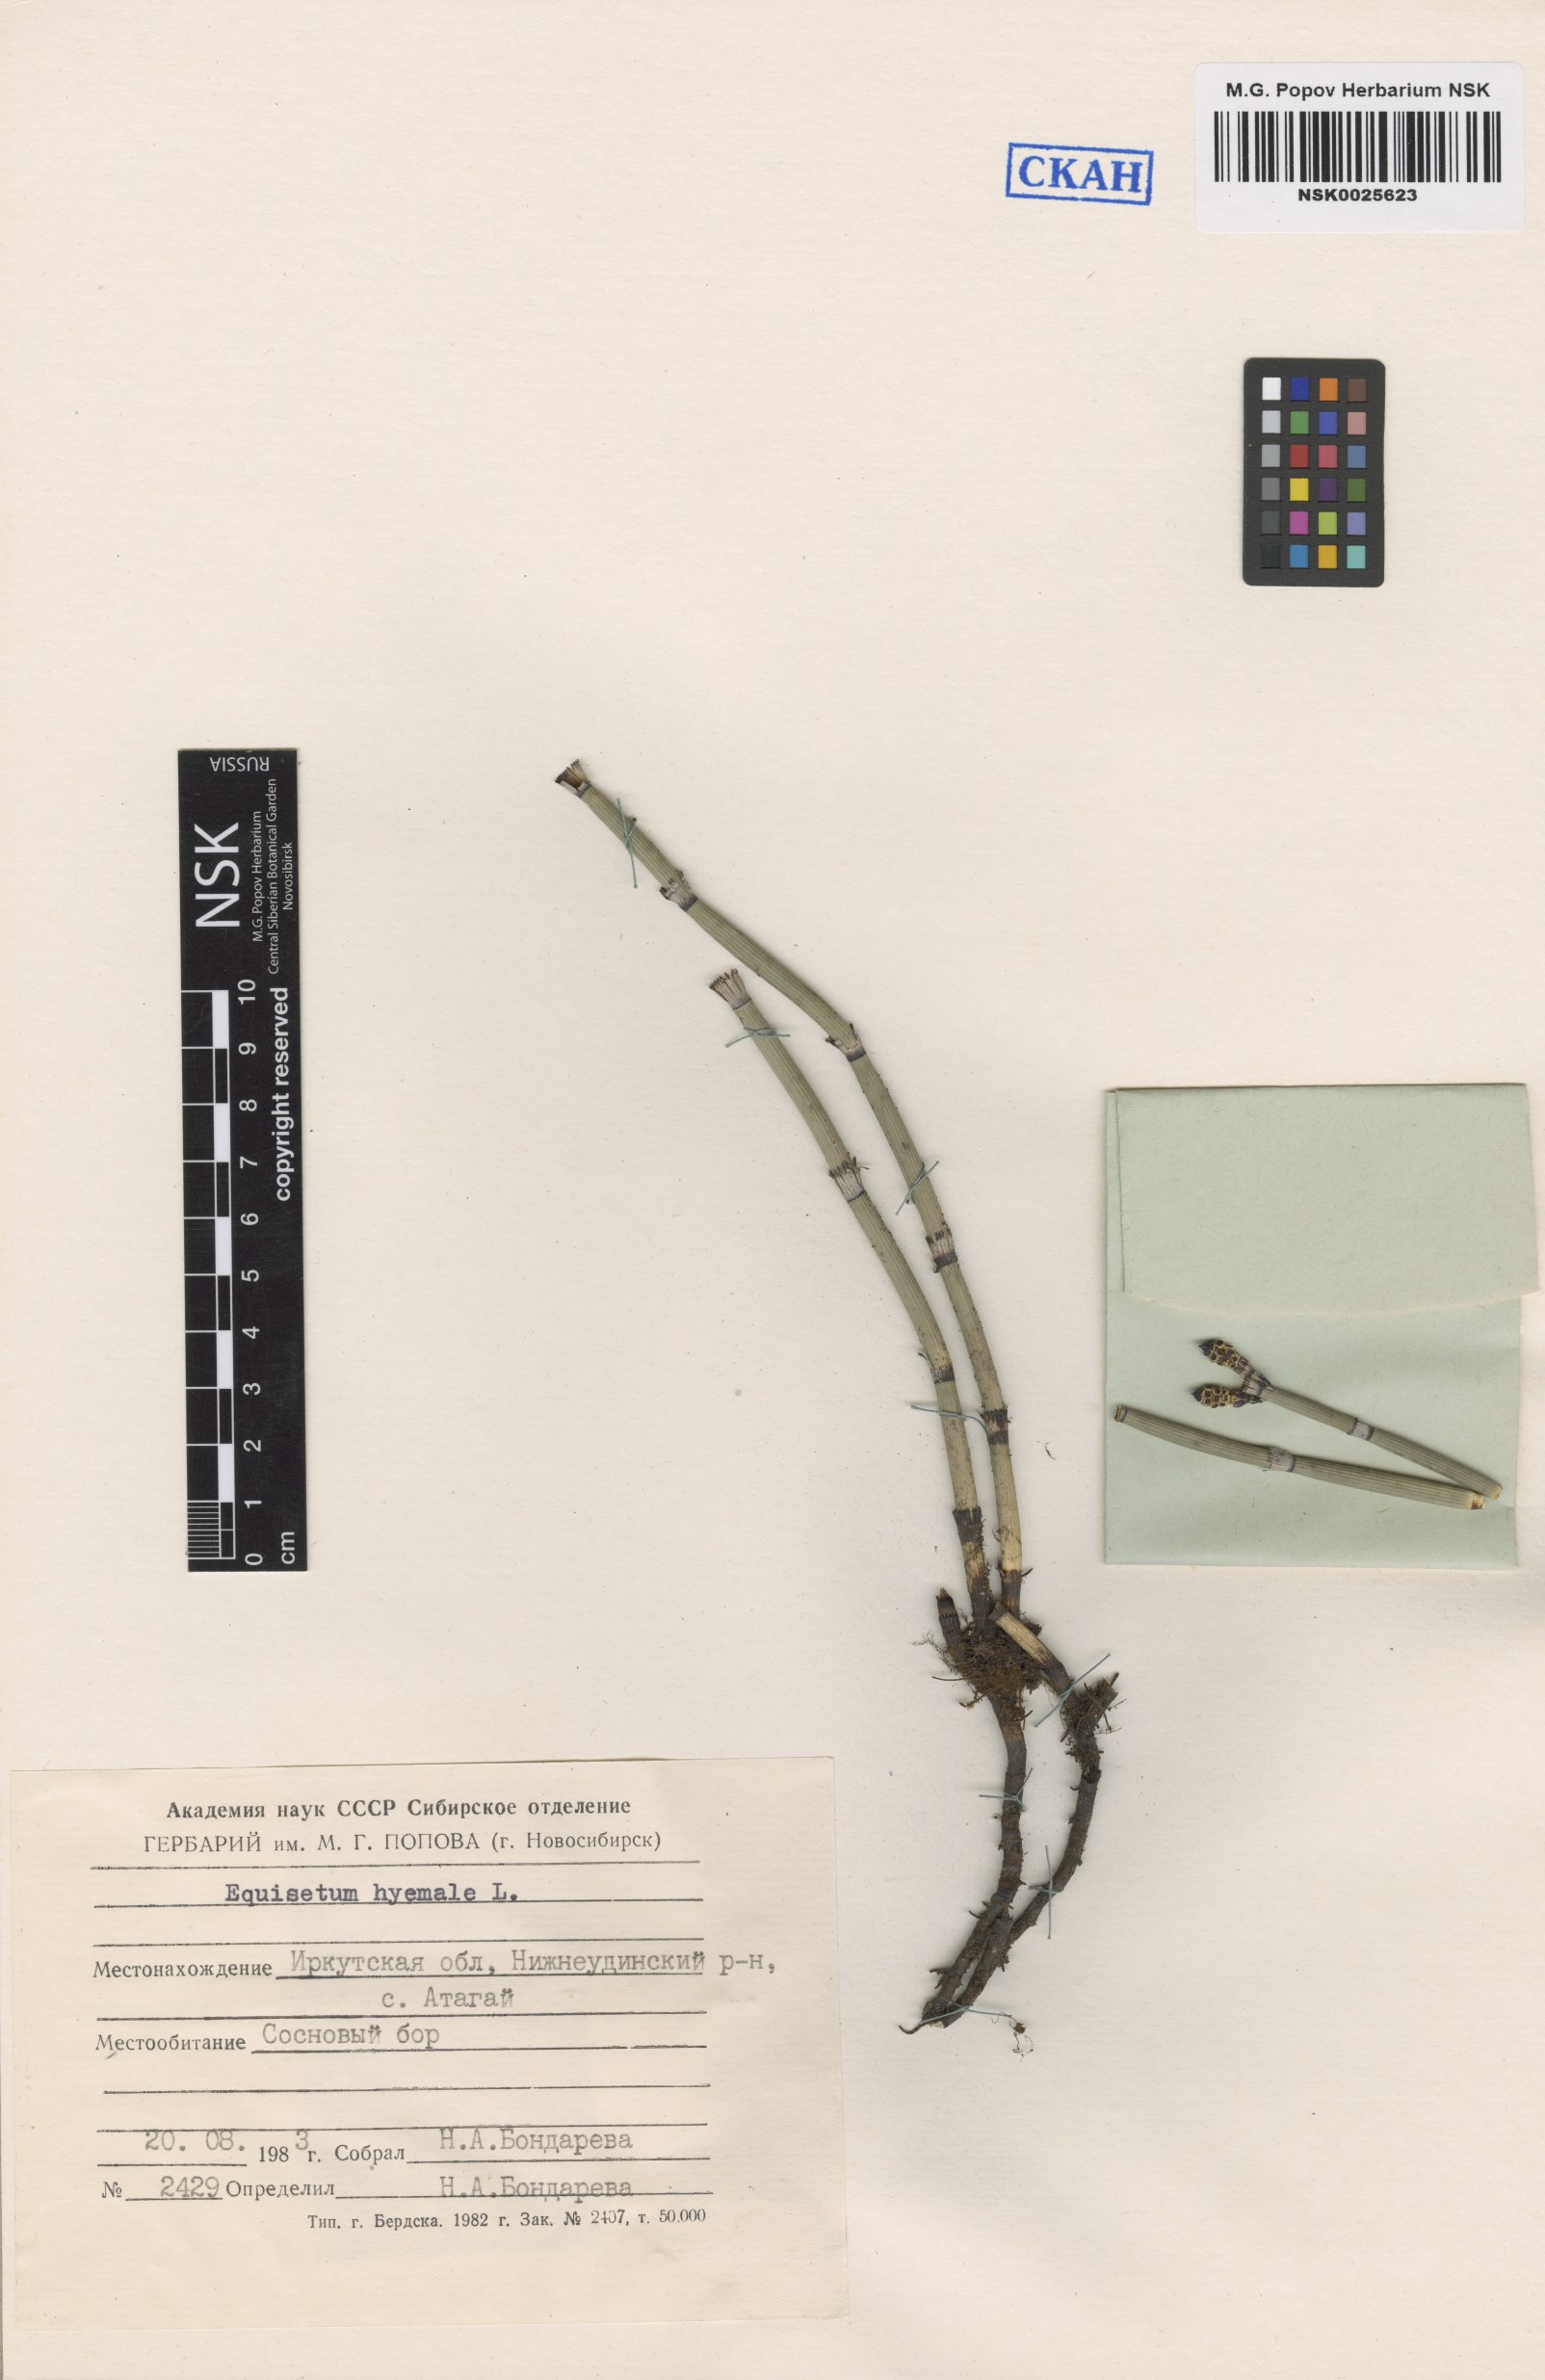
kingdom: Plantae
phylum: Tracheophyta
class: Polypodiopsida
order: Equisetales
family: Equisetaceae
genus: Equisetum
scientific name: Equisetum hyemale
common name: Rough horsetail
